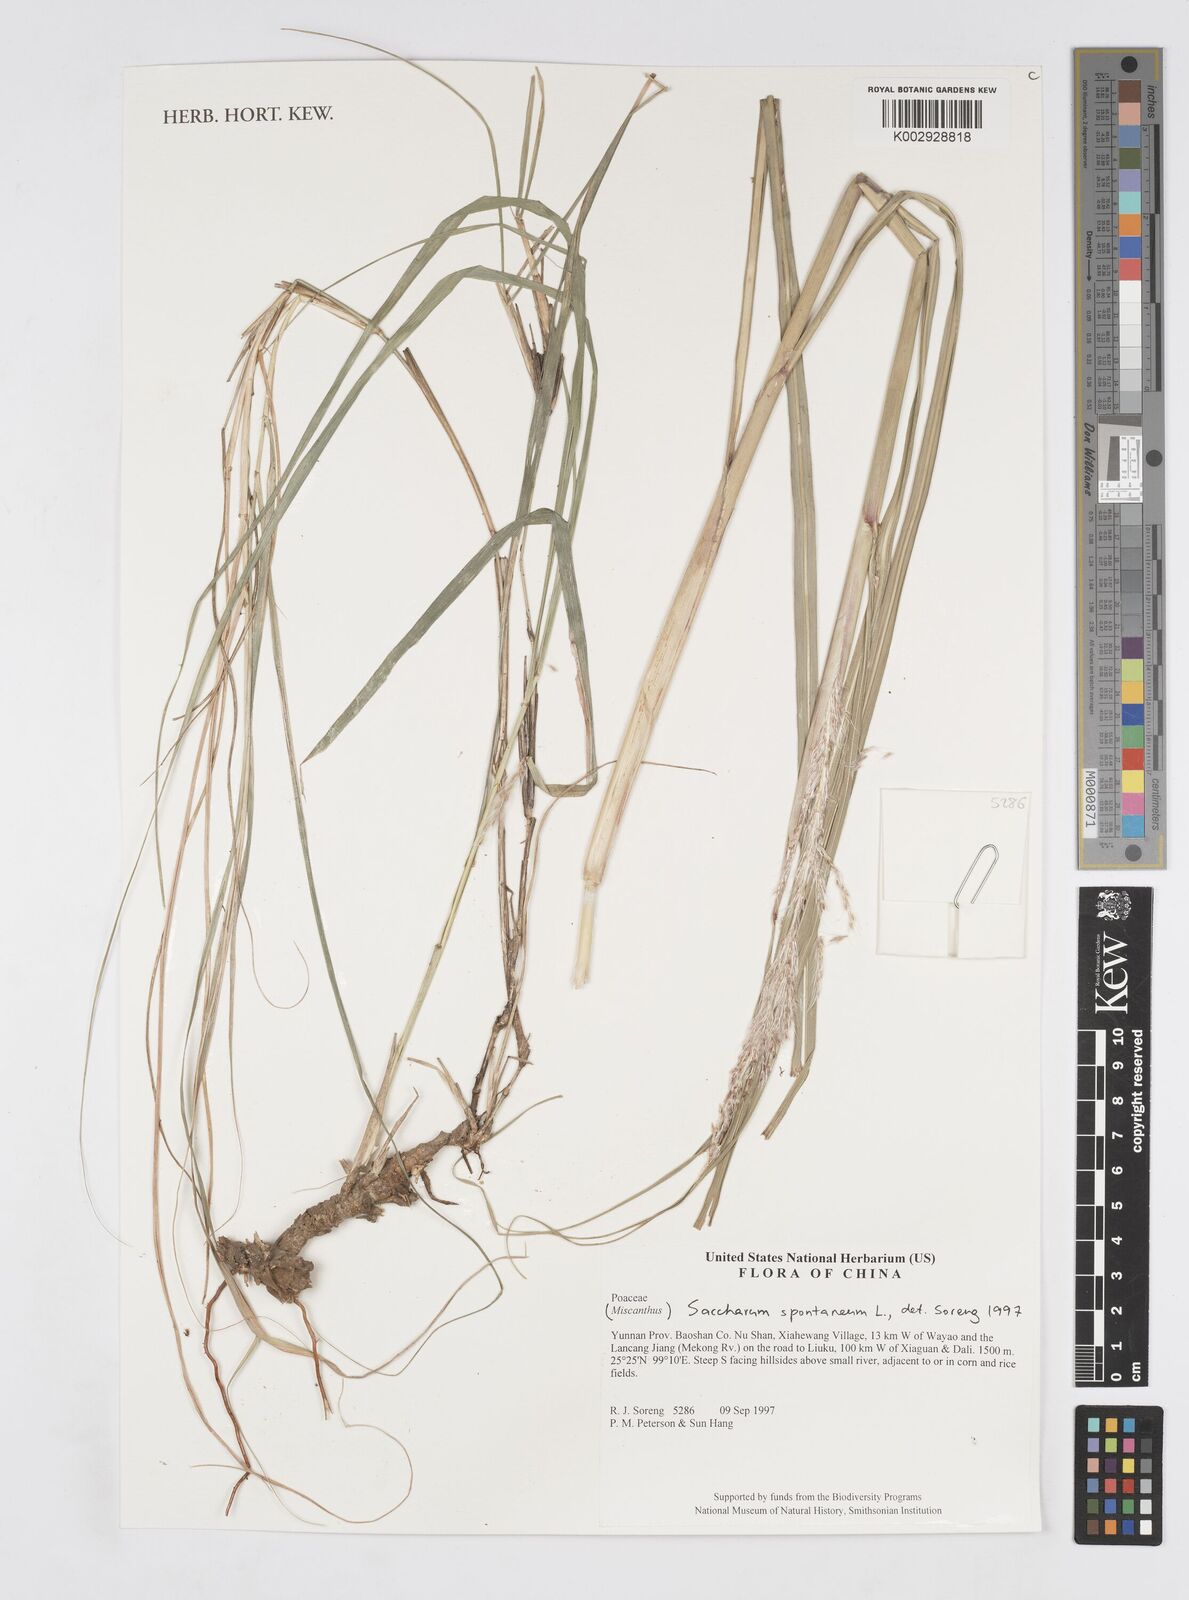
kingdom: Plantae
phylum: Tracheophyta
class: Liliopsida
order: Poales
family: Poaceae
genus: Saccharum
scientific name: Saccharum spontaneum
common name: Wild sugarcane
